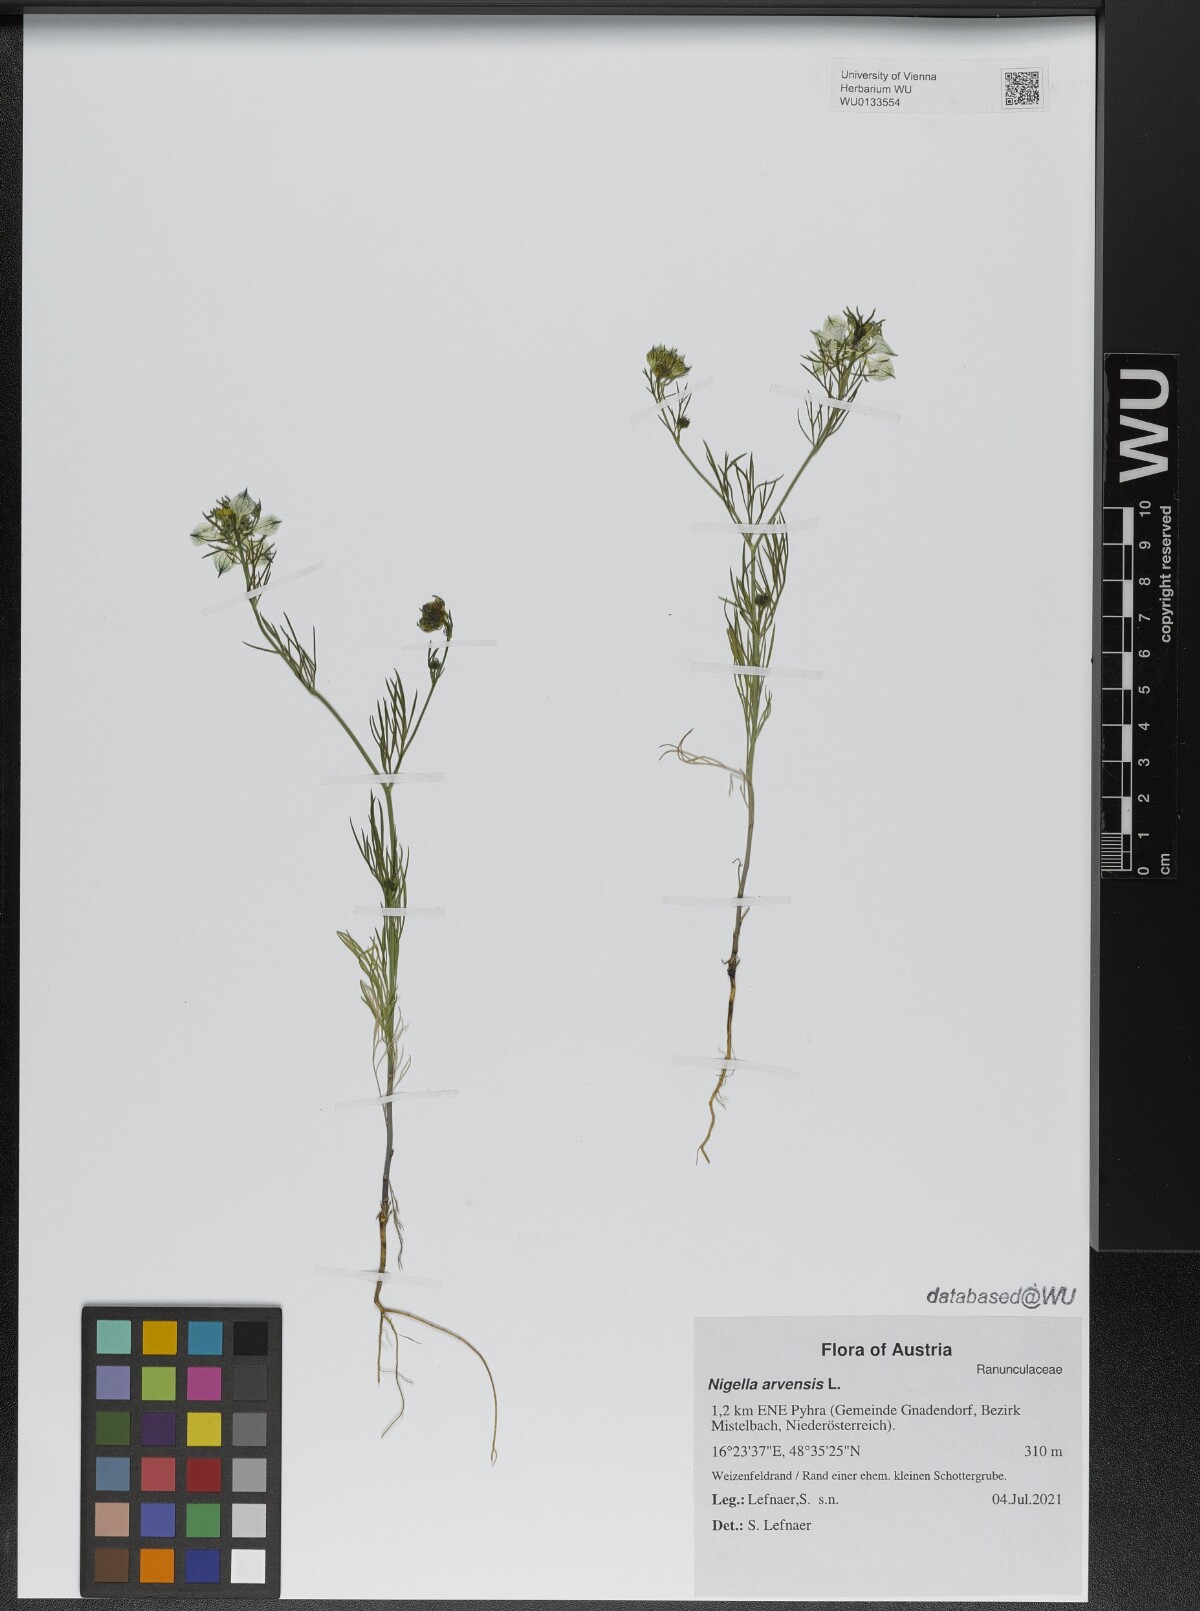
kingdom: Plantae
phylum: Tracheophyta
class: Magnoliopsida
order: Ranunculales
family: Ranunculaceae
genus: Nigella
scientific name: Nigella arvensis
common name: Wild fennel-flower
